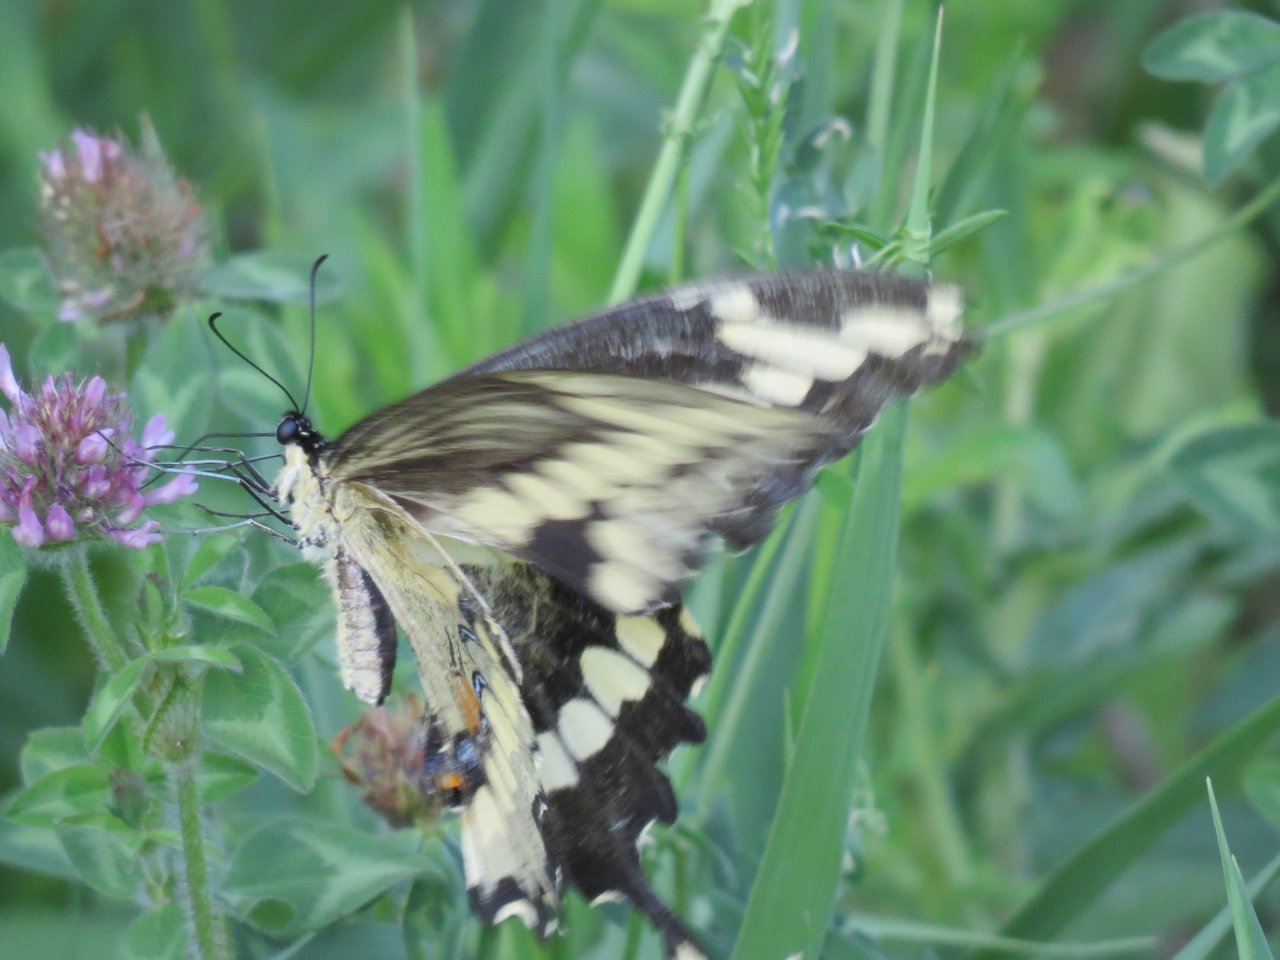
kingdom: Animalia
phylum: Arthropoda
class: Insecta
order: Lepidoptera
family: Papilionidae
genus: Papilio
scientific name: Papilio cresphontes
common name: Eastern Giant Swallowtail
